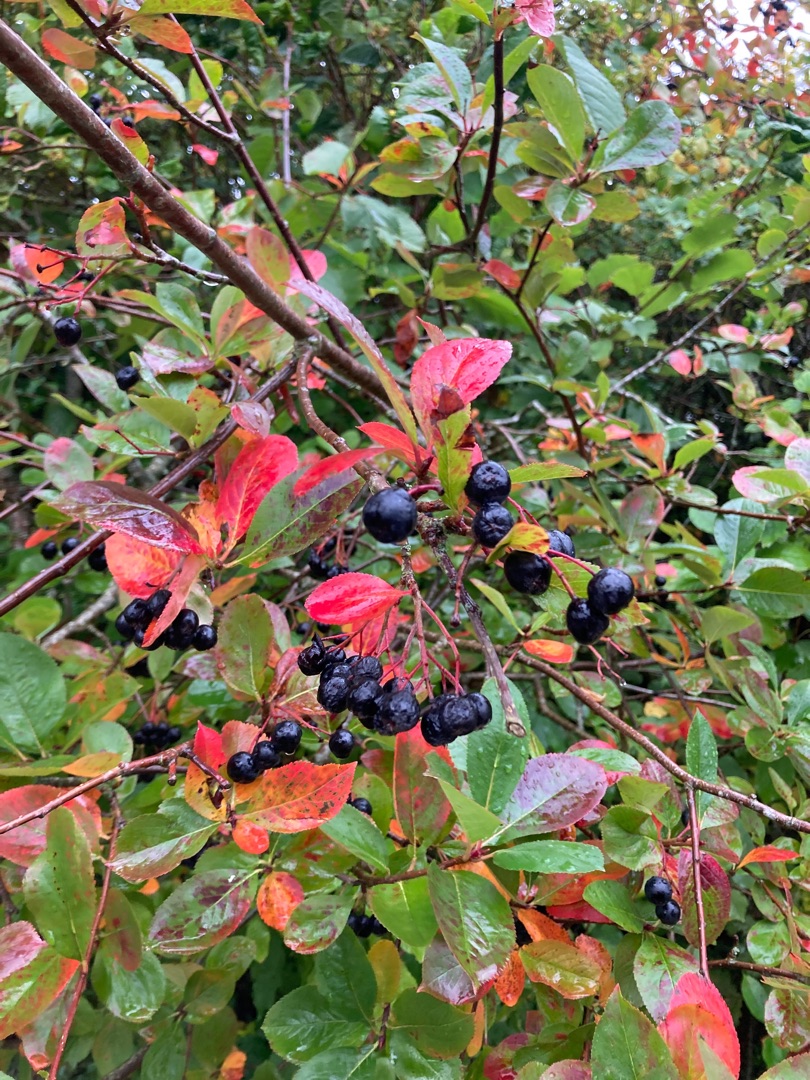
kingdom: Plantae
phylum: Tracheophyta
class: Magnoliopsida
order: Rosales
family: Rosaceae
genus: Aronia
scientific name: Aronia melanocarpa
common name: Sortfrugtet surbær
